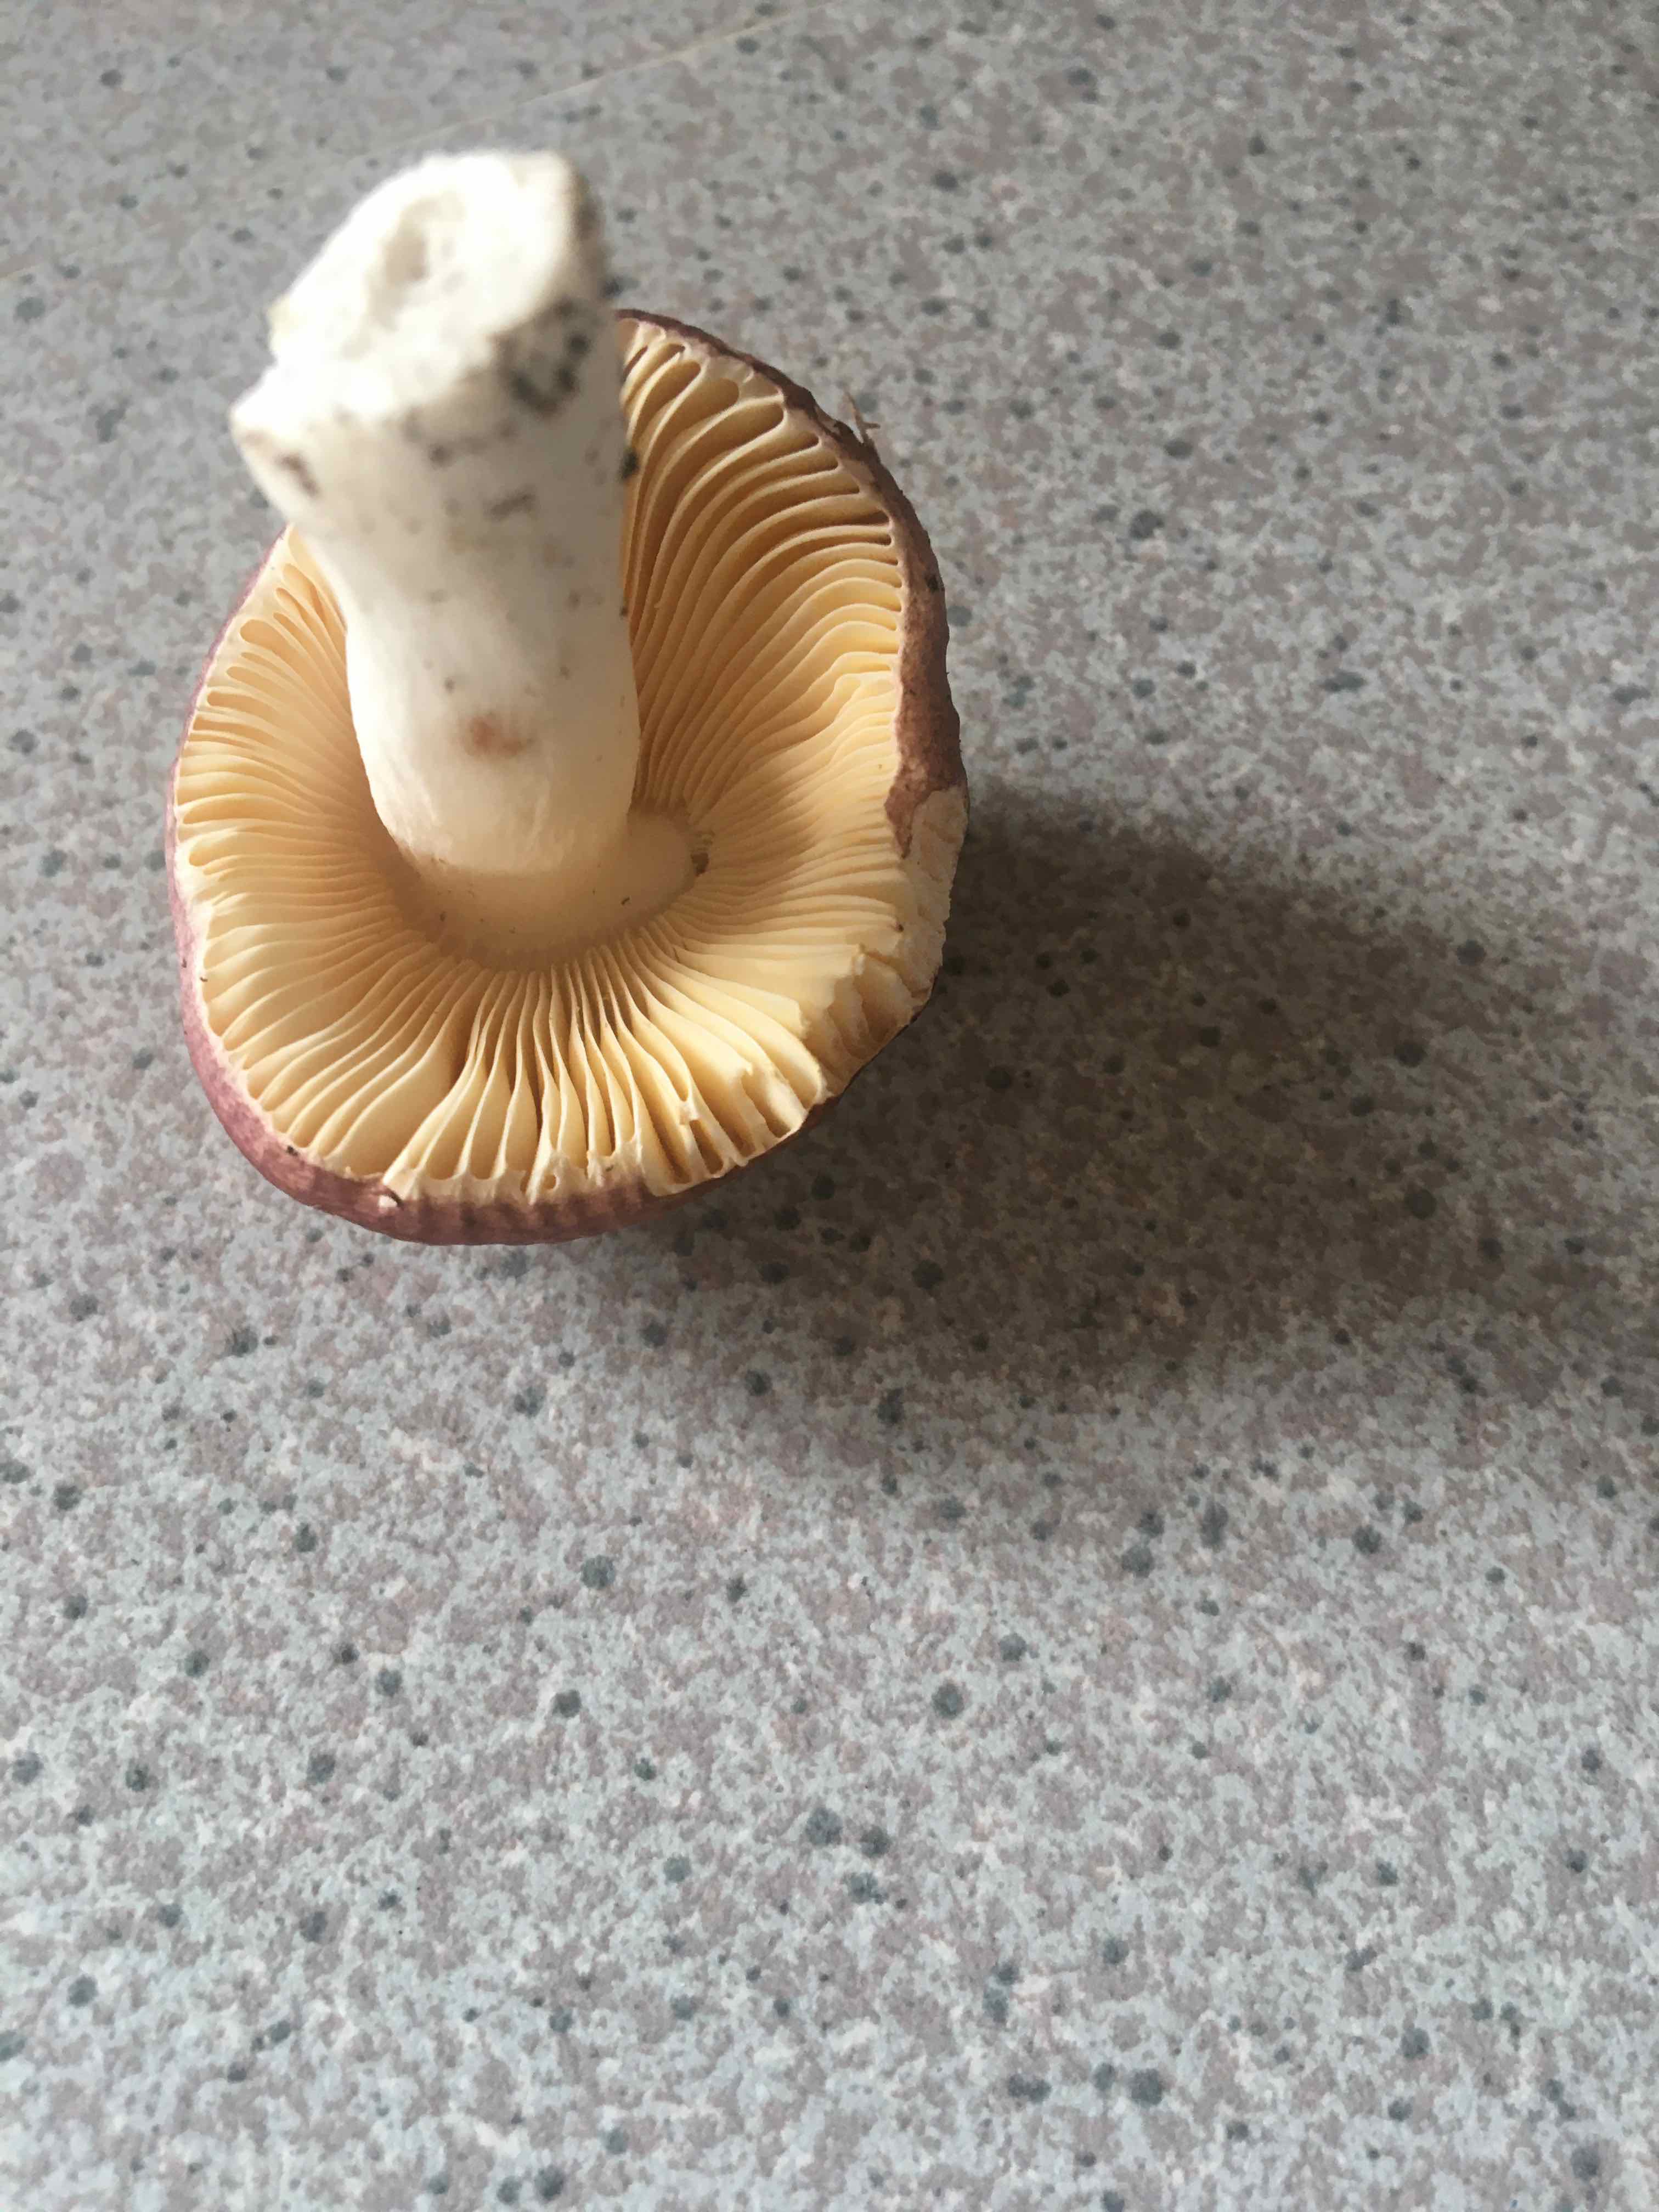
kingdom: Fungi
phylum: Basidiomycota
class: Agaricomycetes
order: Russulales
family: Russulaceae
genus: Russula
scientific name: Russula
